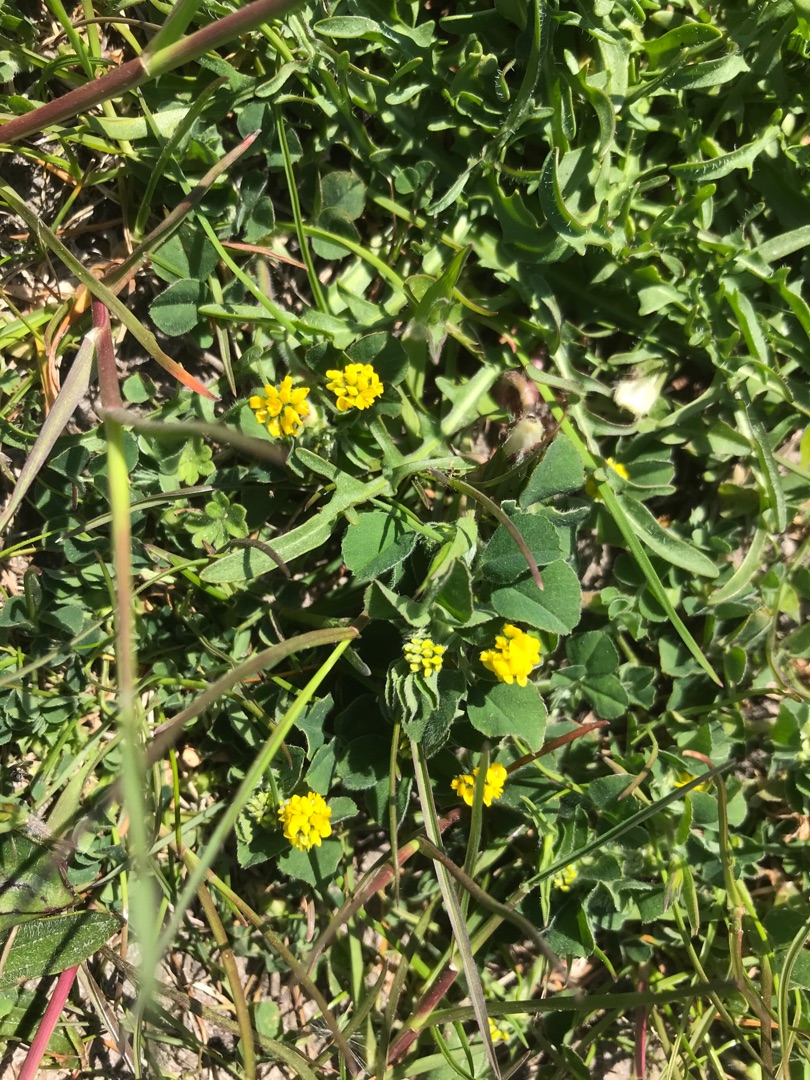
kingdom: Plantae
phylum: Tracheophyta
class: Magnoliopsida
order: Fabales
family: Fabaceae
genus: Medicago
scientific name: Medicago lupulina
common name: Humle-sneglebælg
